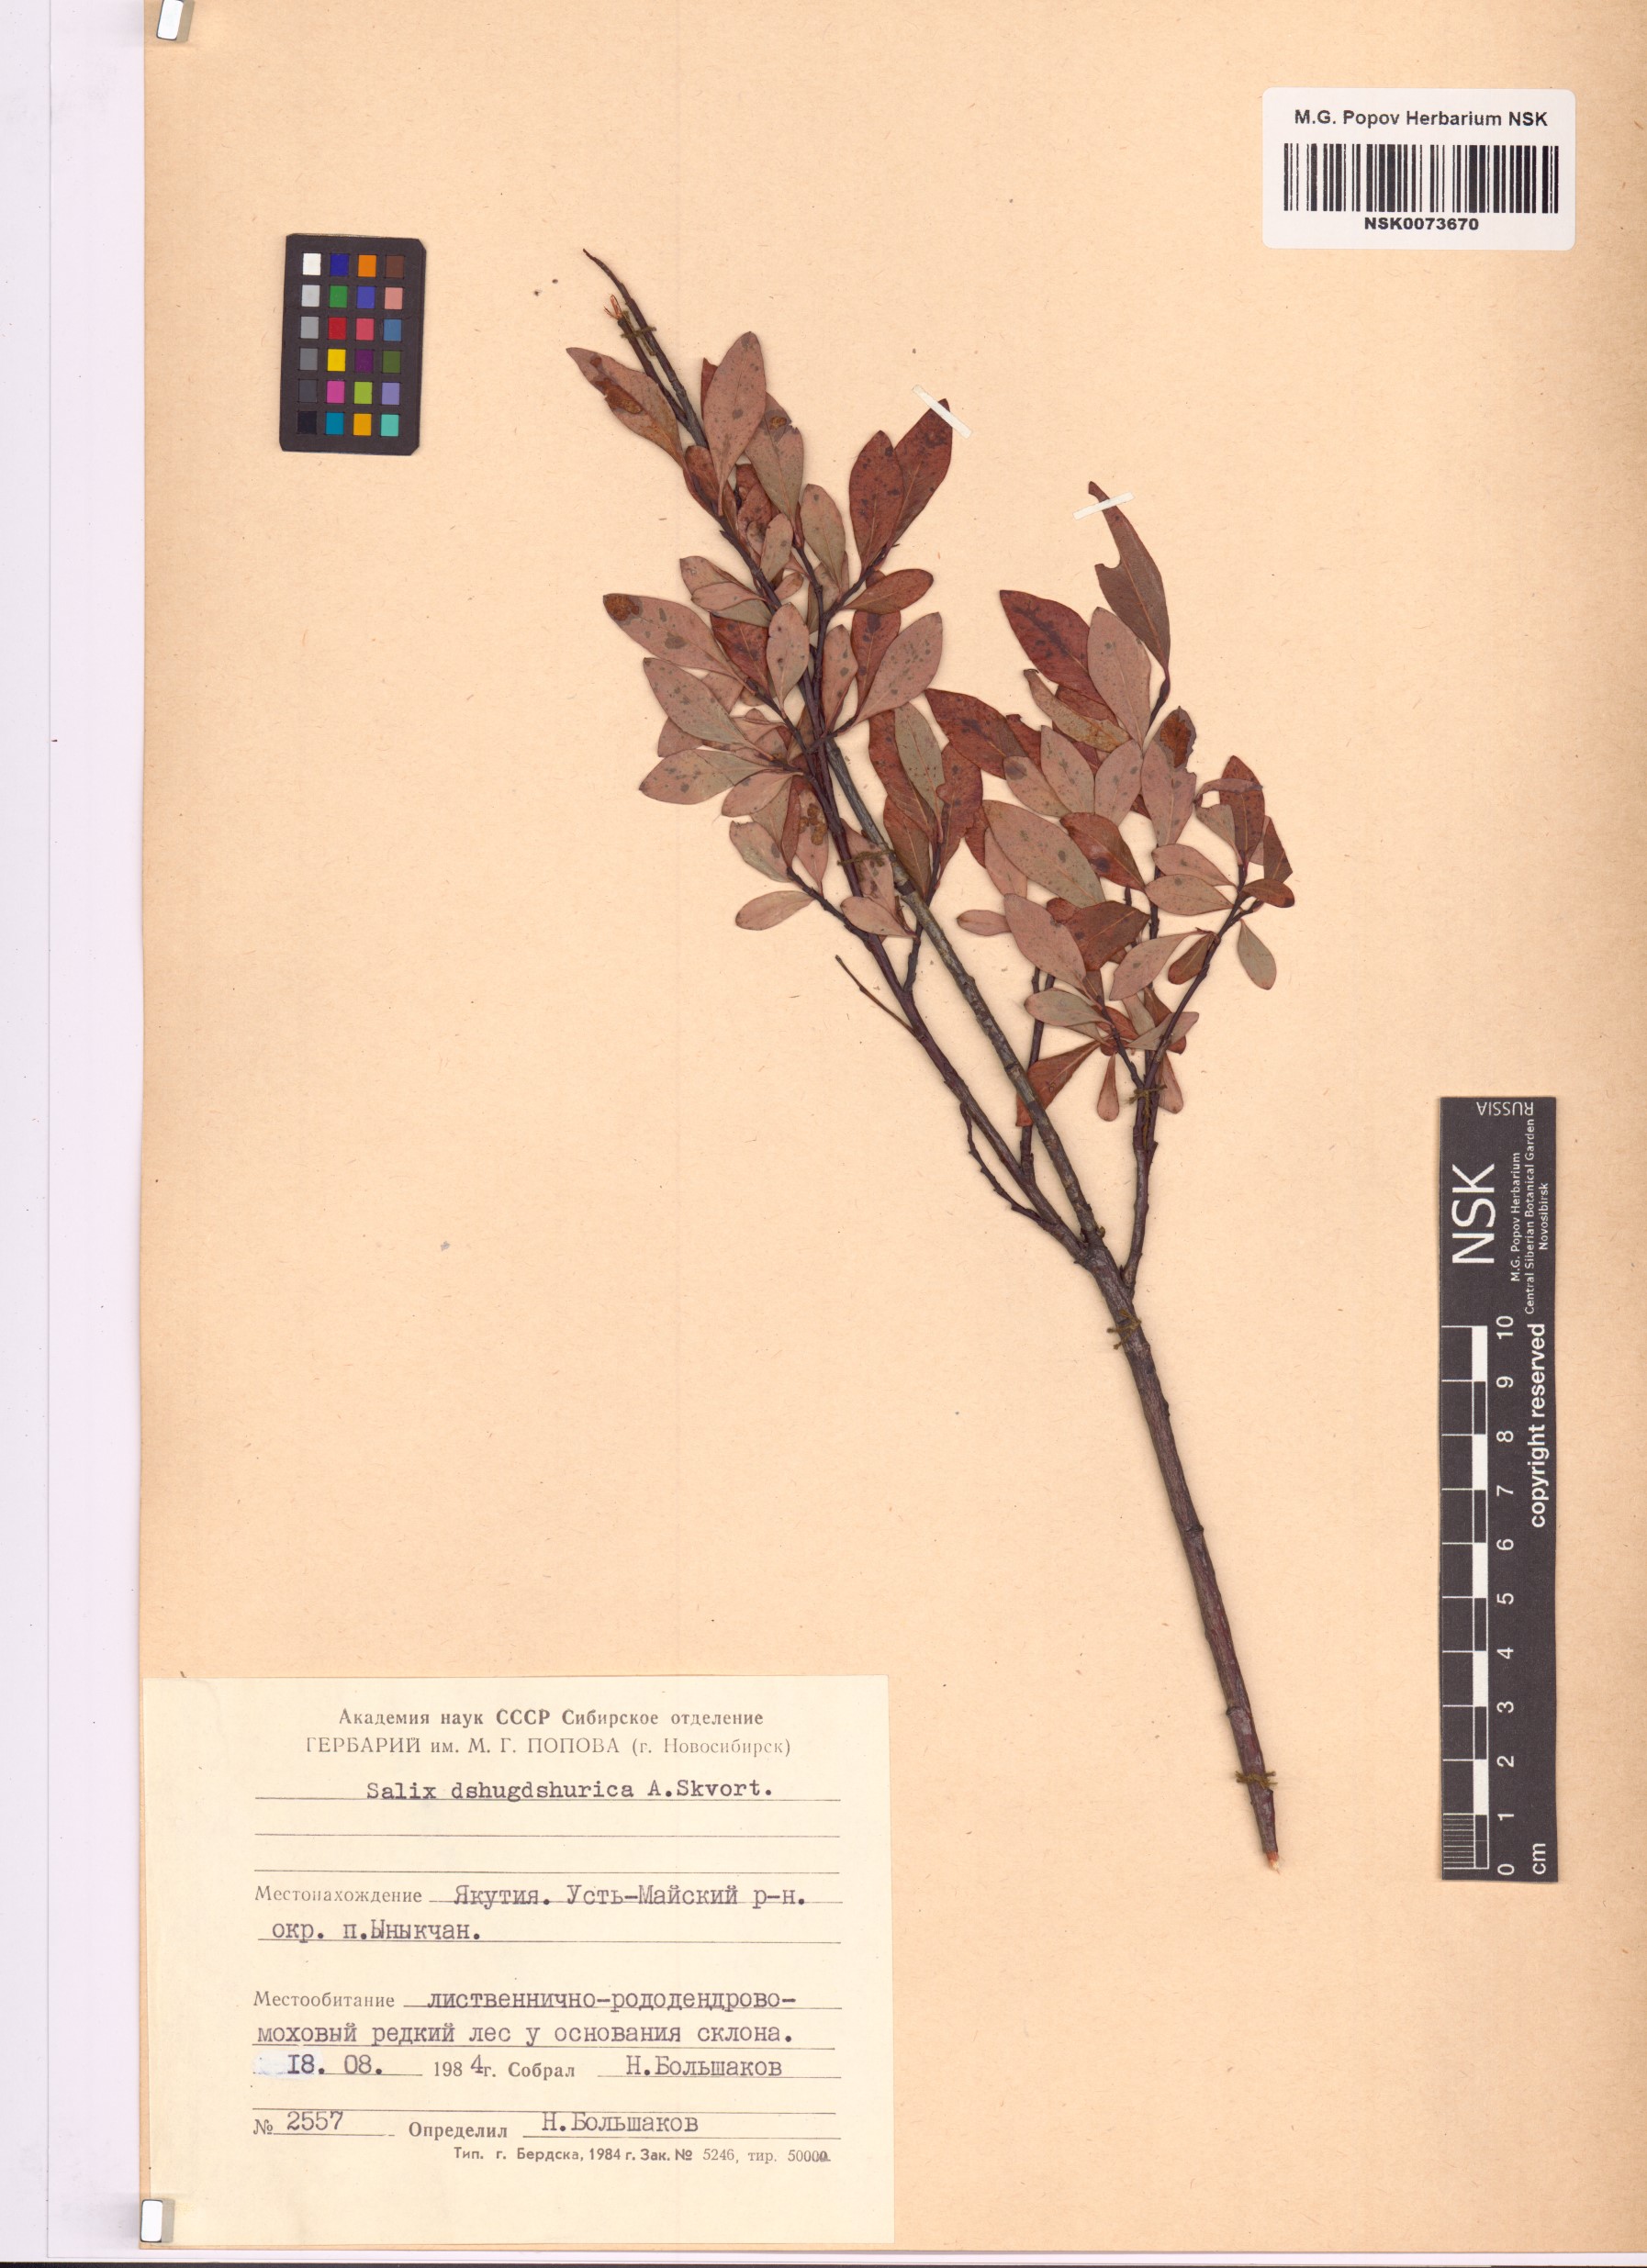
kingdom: Plantae
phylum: Tracheophyta
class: Magnoliopsida
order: Malpighiales
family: Salicaceae
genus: Salix
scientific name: Salix dshugdshurica
